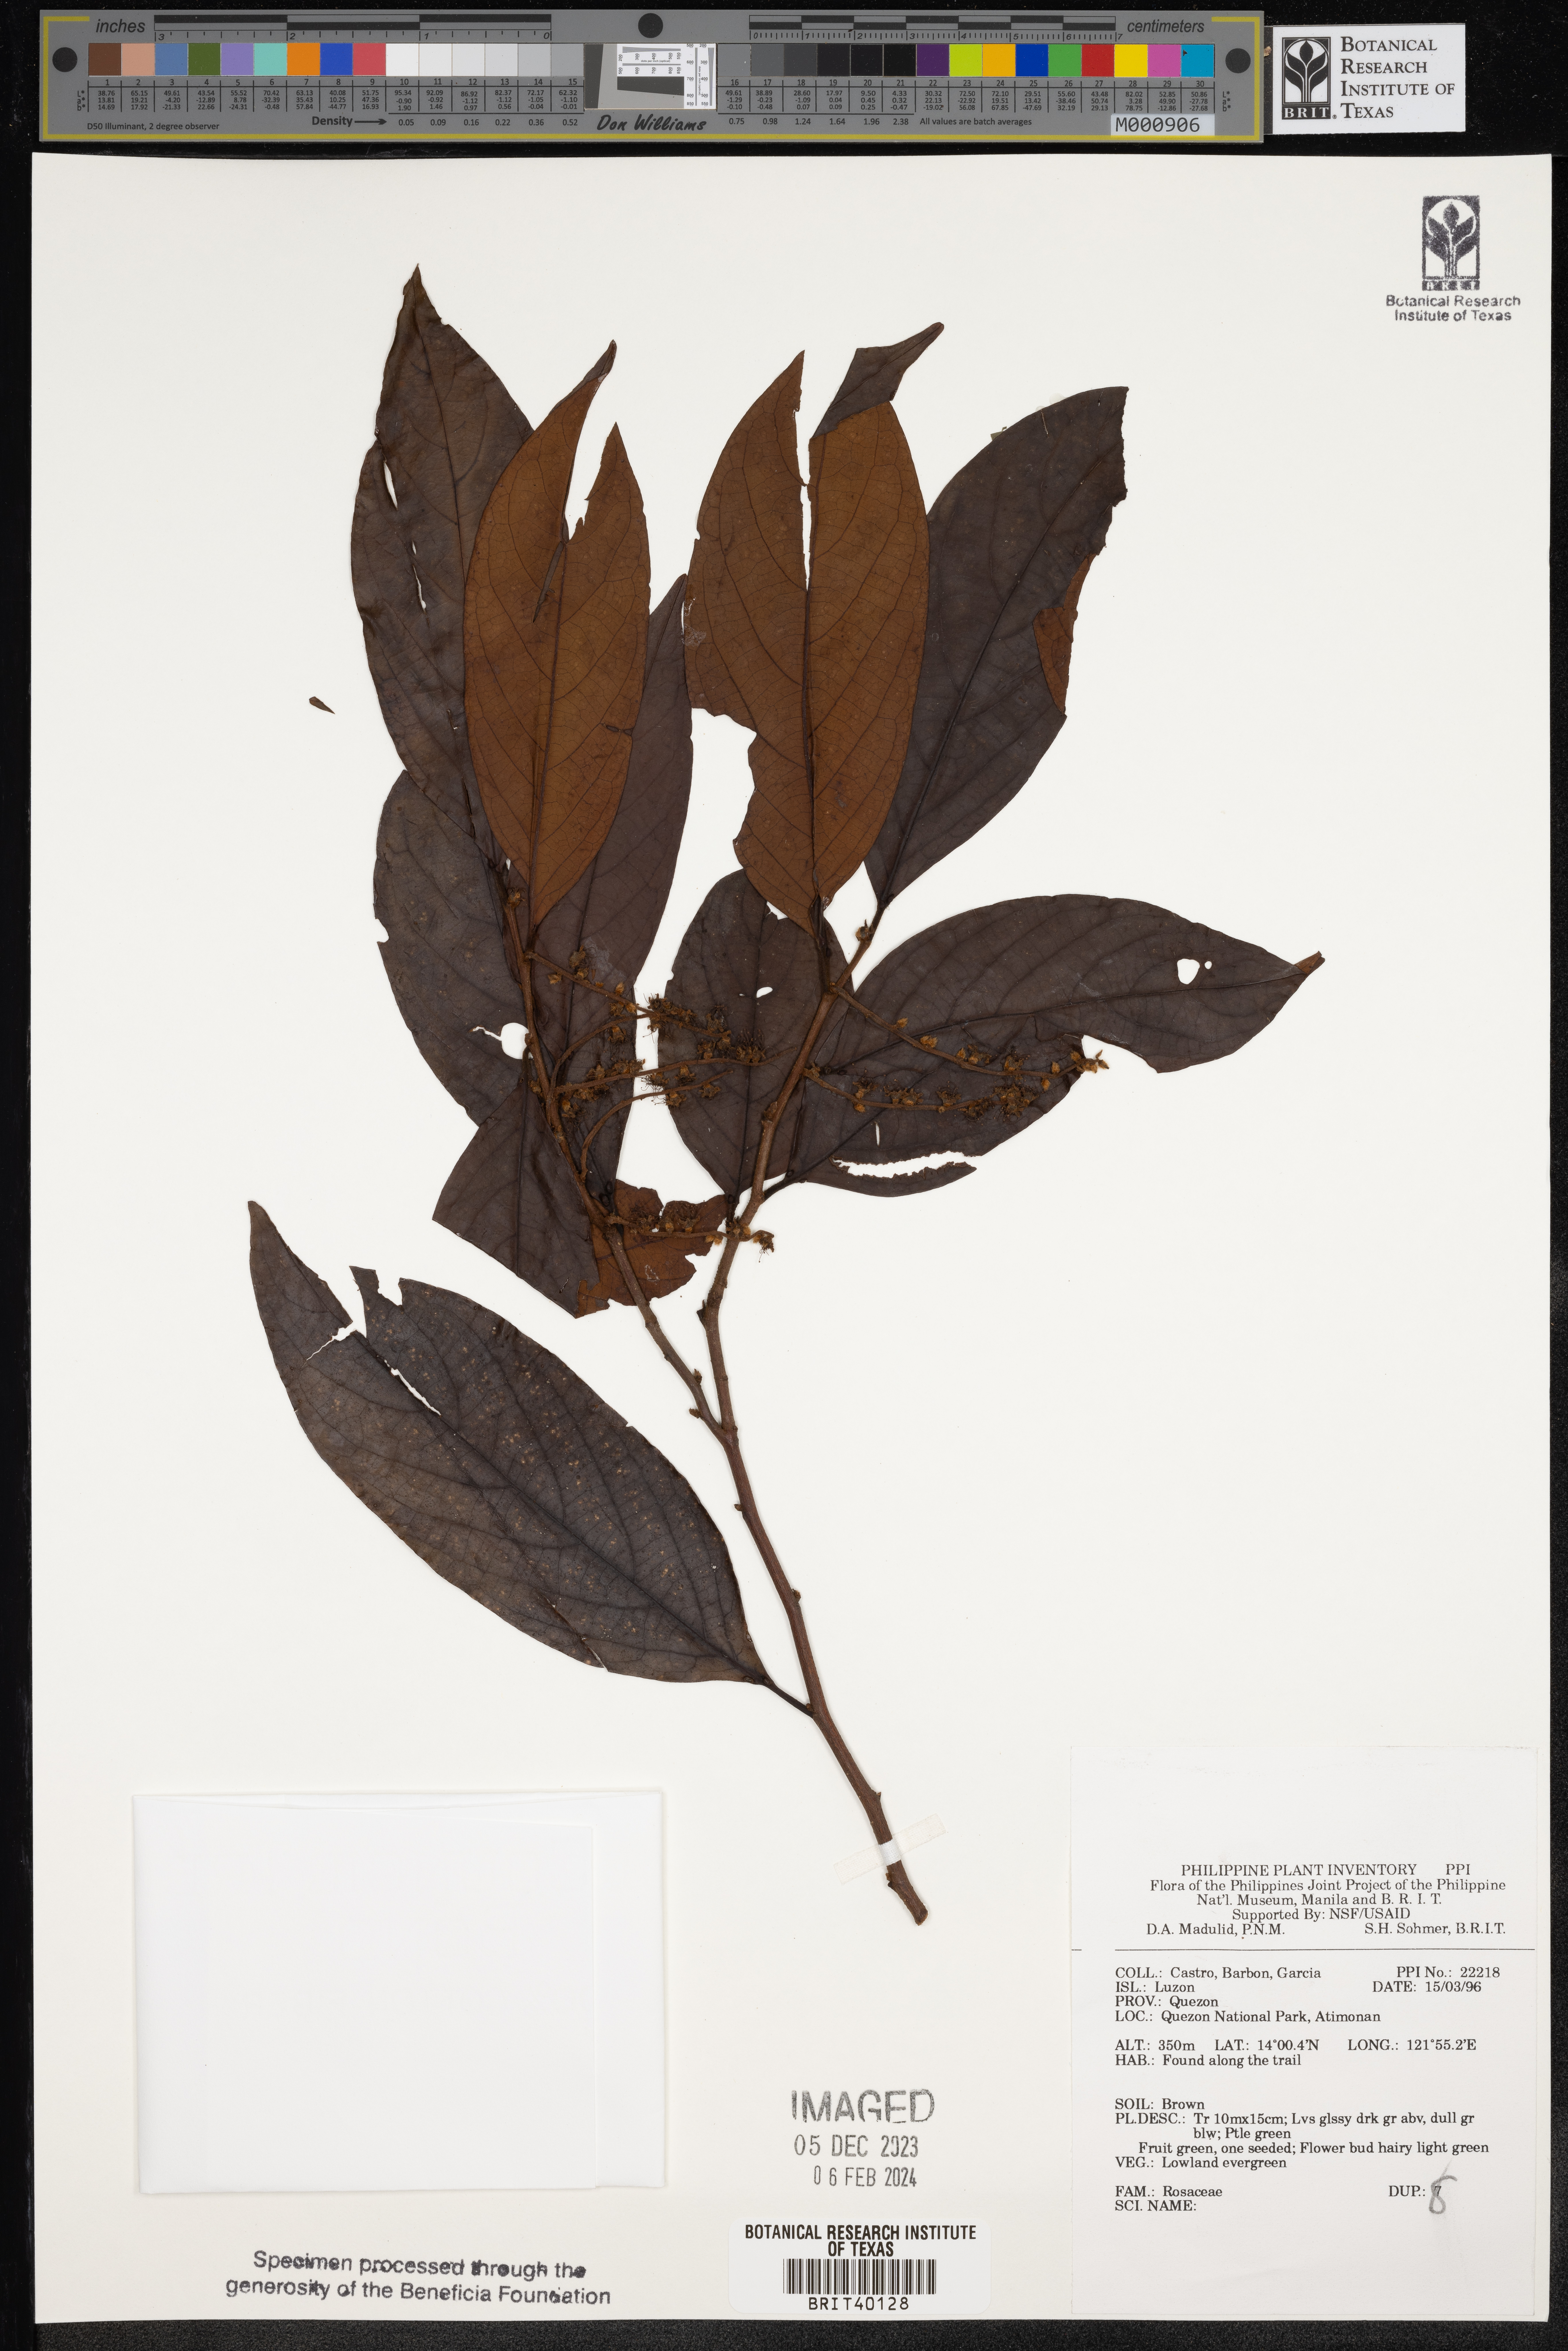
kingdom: Plantae
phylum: Tracheophyta
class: Magnoliopsida
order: Rosales
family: Rosaceae
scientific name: Rosaceae
